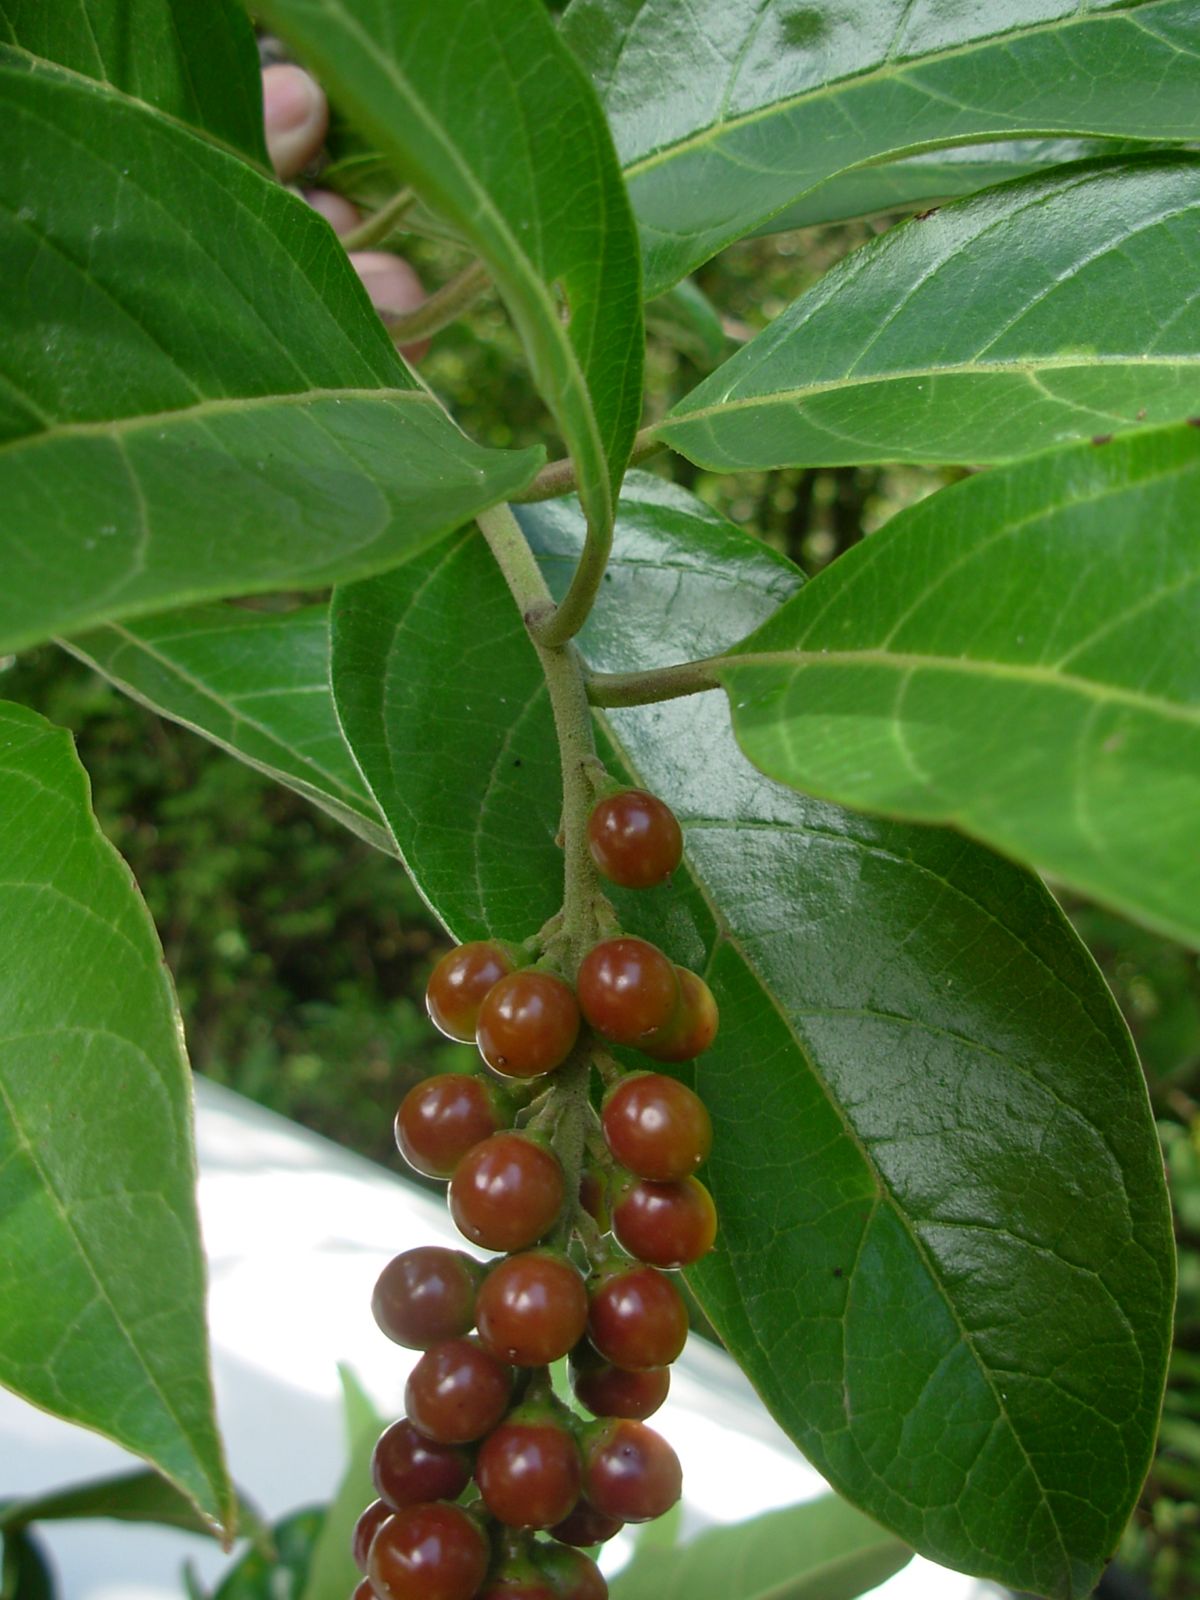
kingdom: Plantae
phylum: Tracheophyta
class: Magnoliopsida
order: Lamiales
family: Verbenaceae
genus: Citharexylum
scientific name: Citharexylum mocinoi
